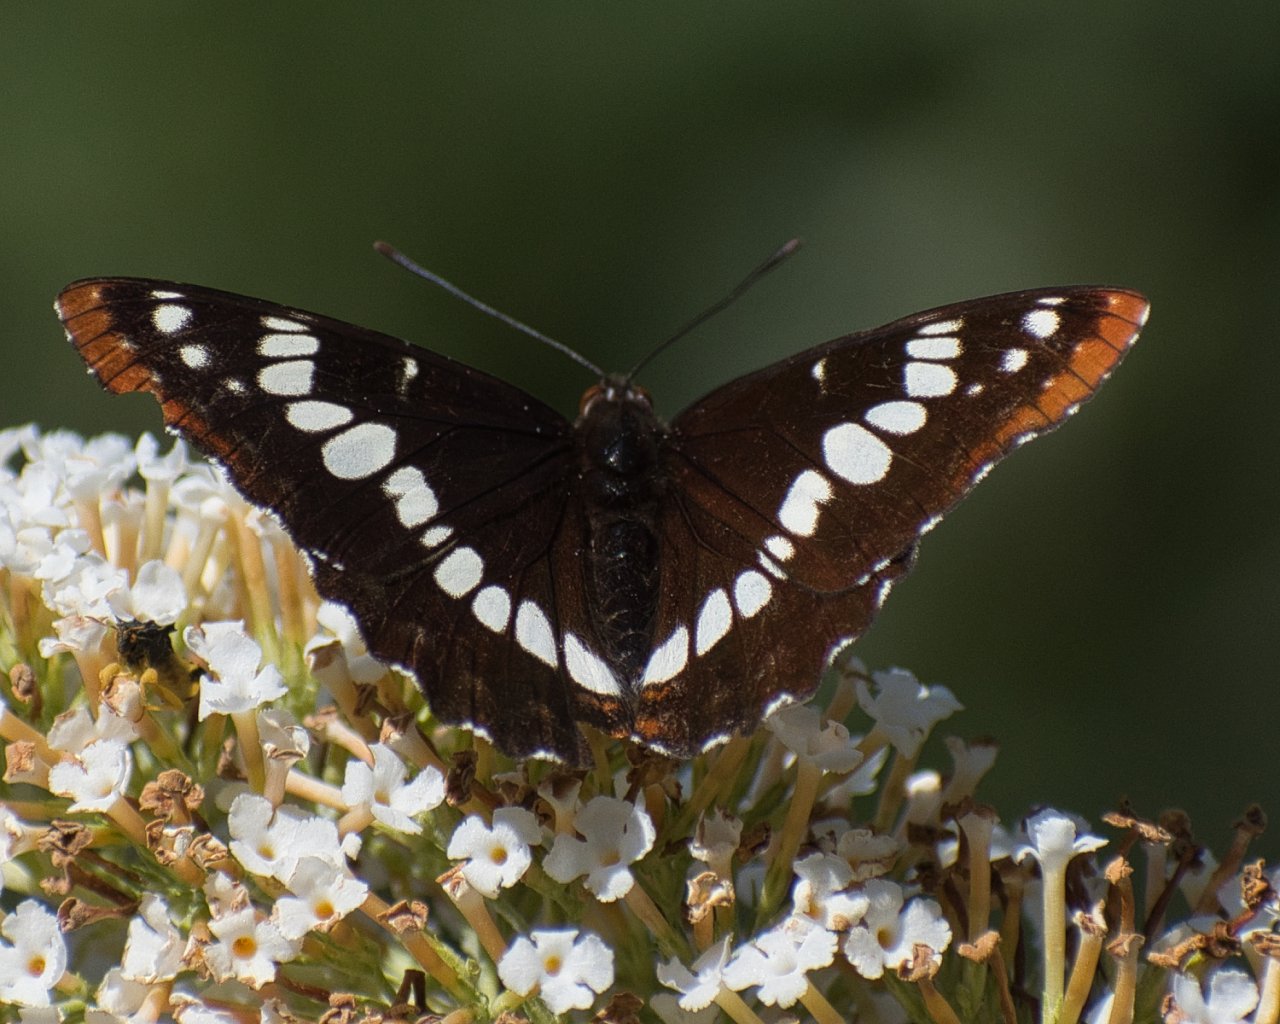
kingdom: Animalia
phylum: Arthropoda
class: Insecta
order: Lepidoptera
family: Nymphalidae
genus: Limenitis
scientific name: Limenitis lorquini
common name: Lorquin's Admiral
